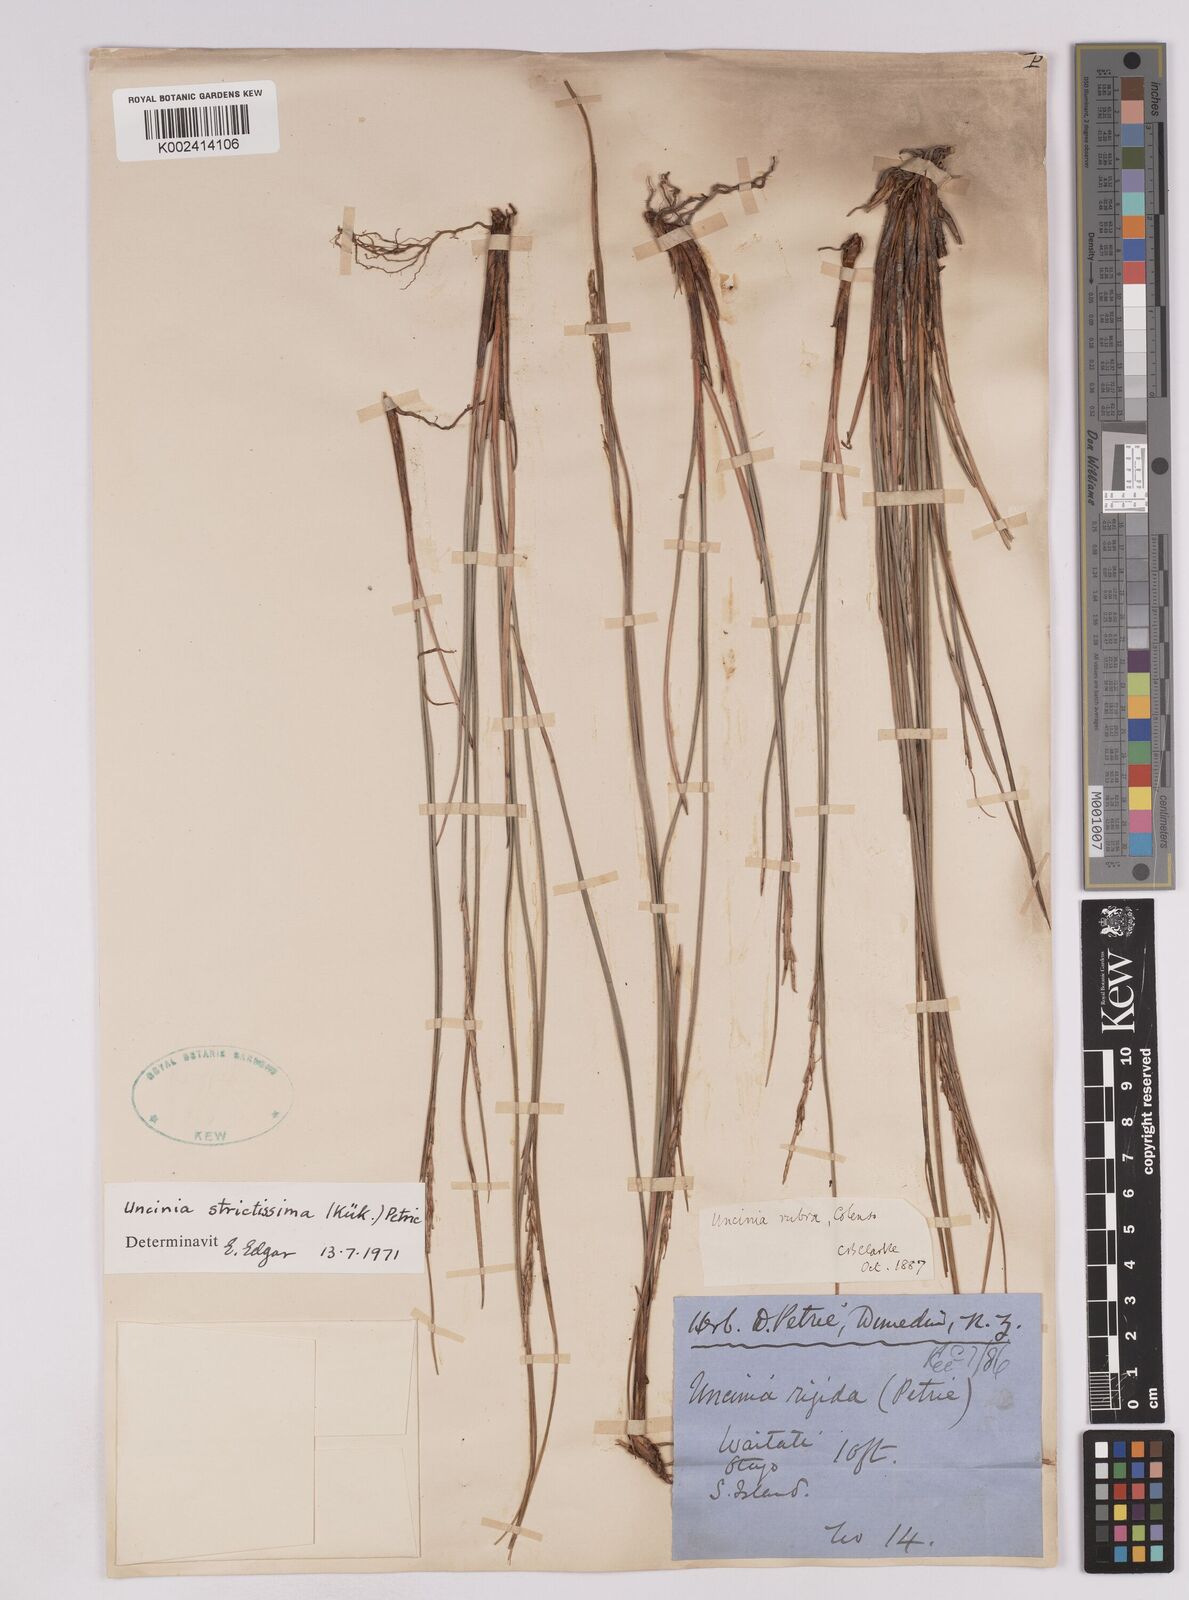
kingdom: Plantae
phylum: Tracheophyta
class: Liliopsida
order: Poales
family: Cyperaceae
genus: Carex
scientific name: Carex strictissima
